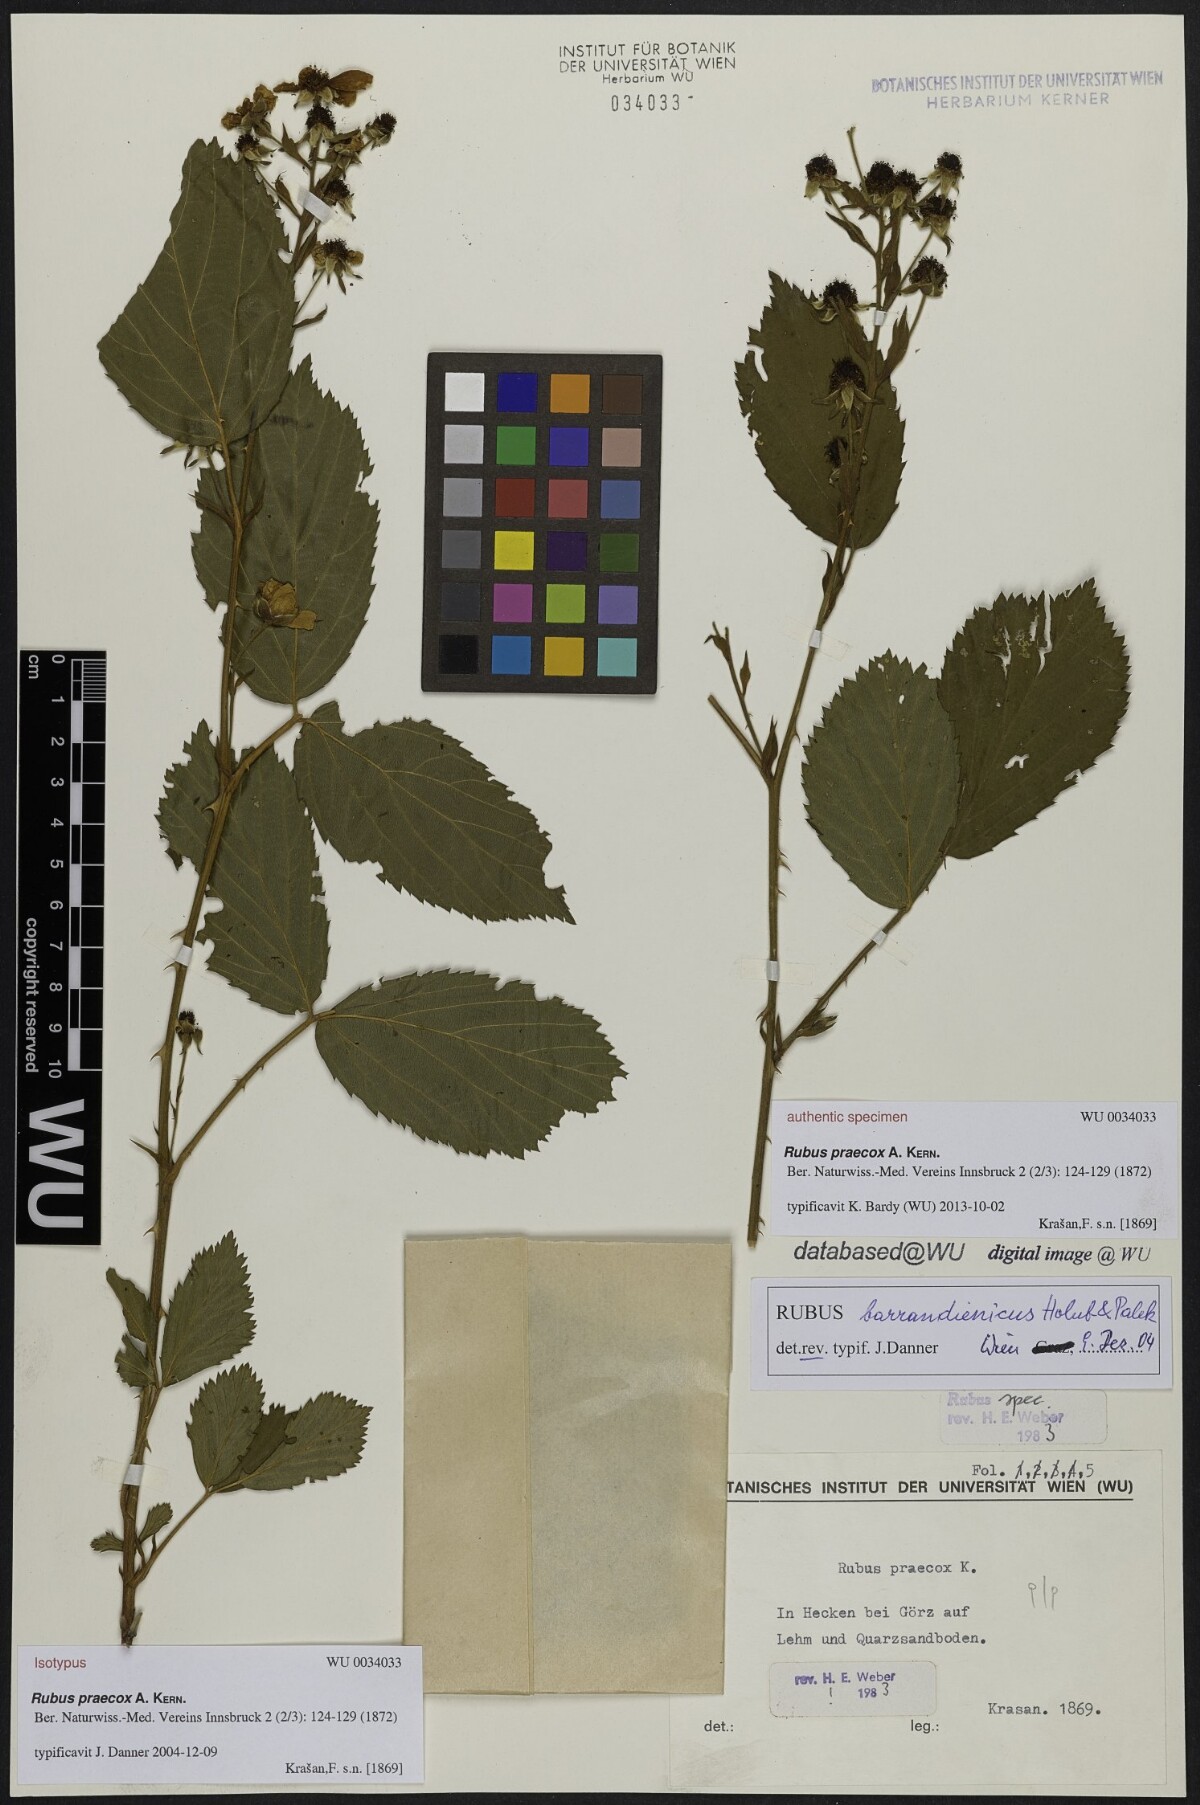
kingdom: Plantae
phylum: Tracheophyta
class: Magnoliopsida
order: Rosales
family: Rosaceae
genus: Rubus
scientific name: Rubus sulcatus
